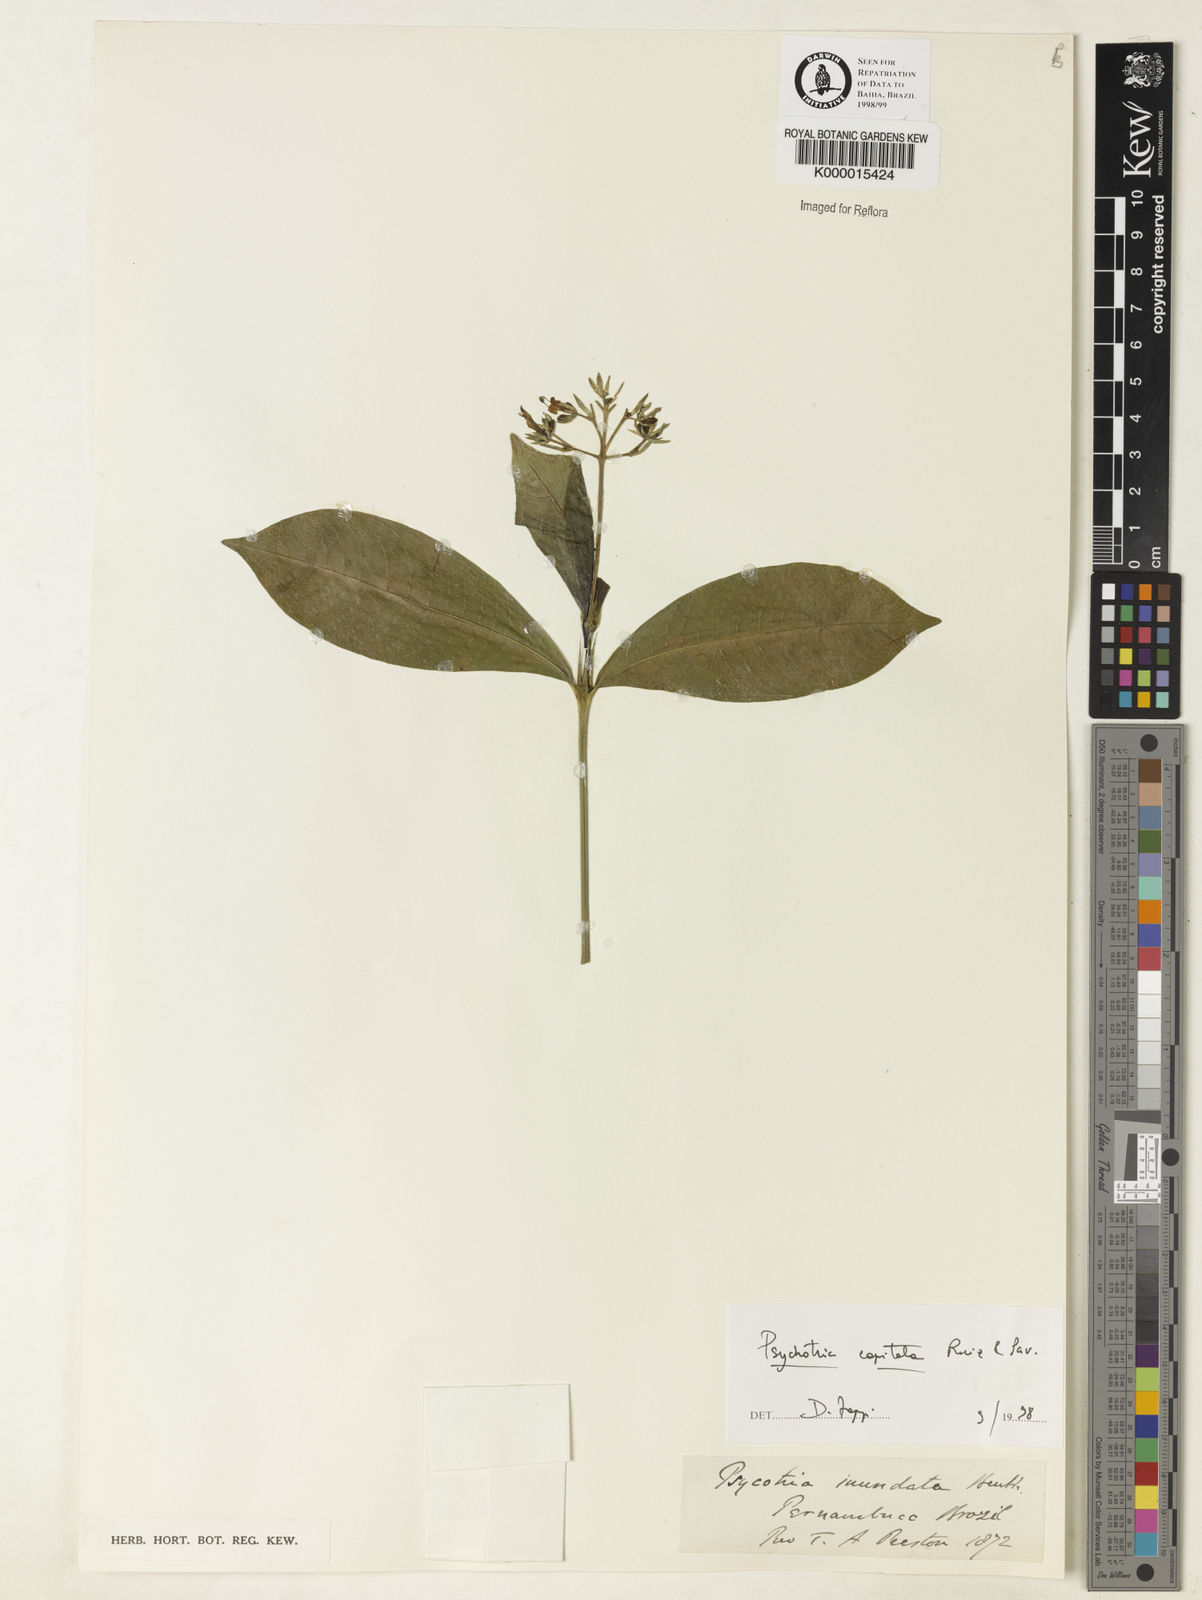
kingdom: Plantae
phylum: Tracheophyta
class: Magnoliopsida
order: Gentianales
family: Rubiaceae
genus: Psychotria
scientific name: Psychotria
